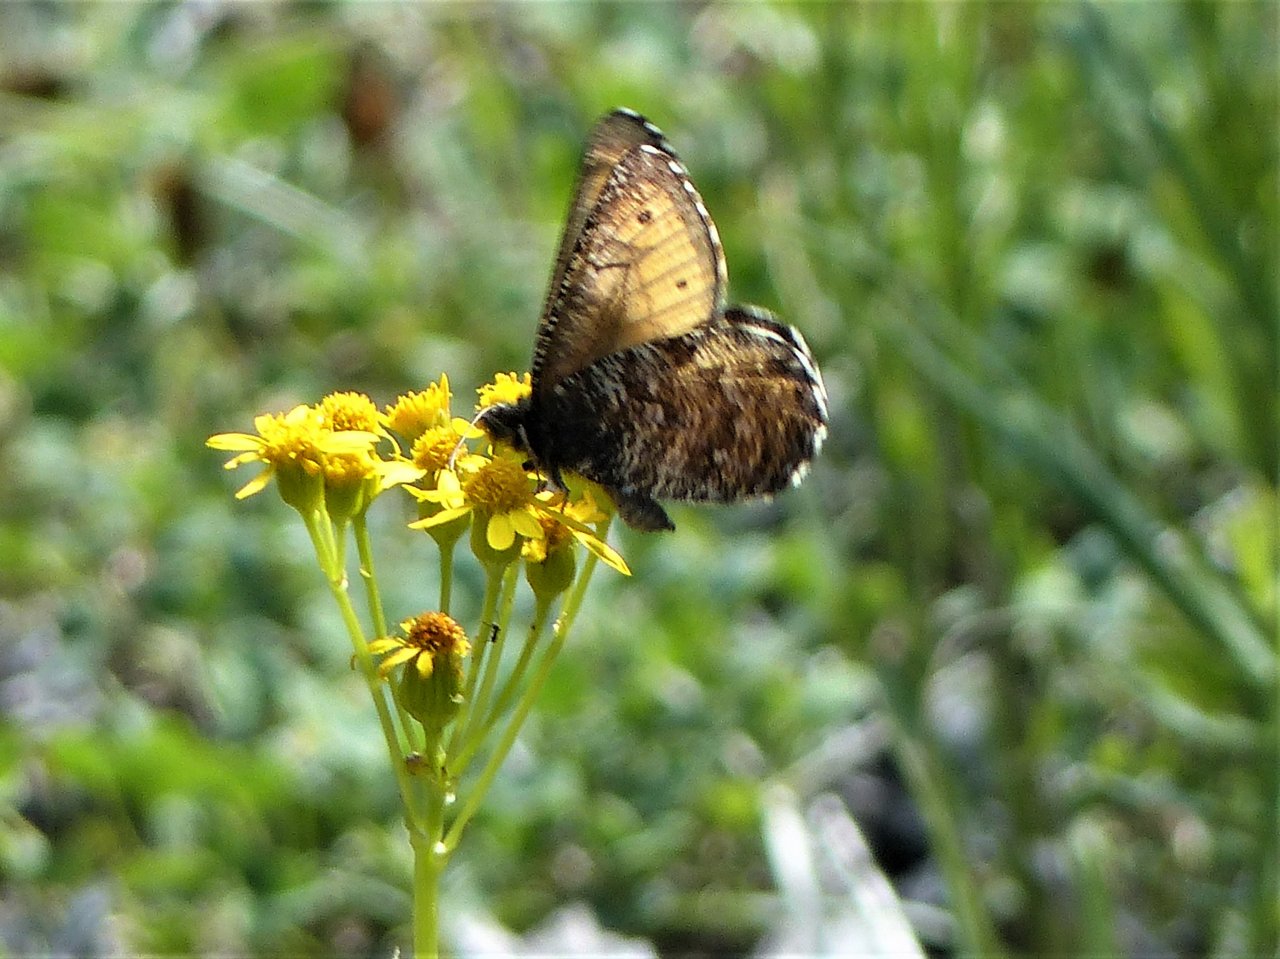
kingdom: Animalia
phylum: Arthropoda
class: Insecta
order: Lepidoptera
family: Nymphalidae
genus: Oeneis
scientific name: Oeneis chryxus
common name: Chryxus Arctic
